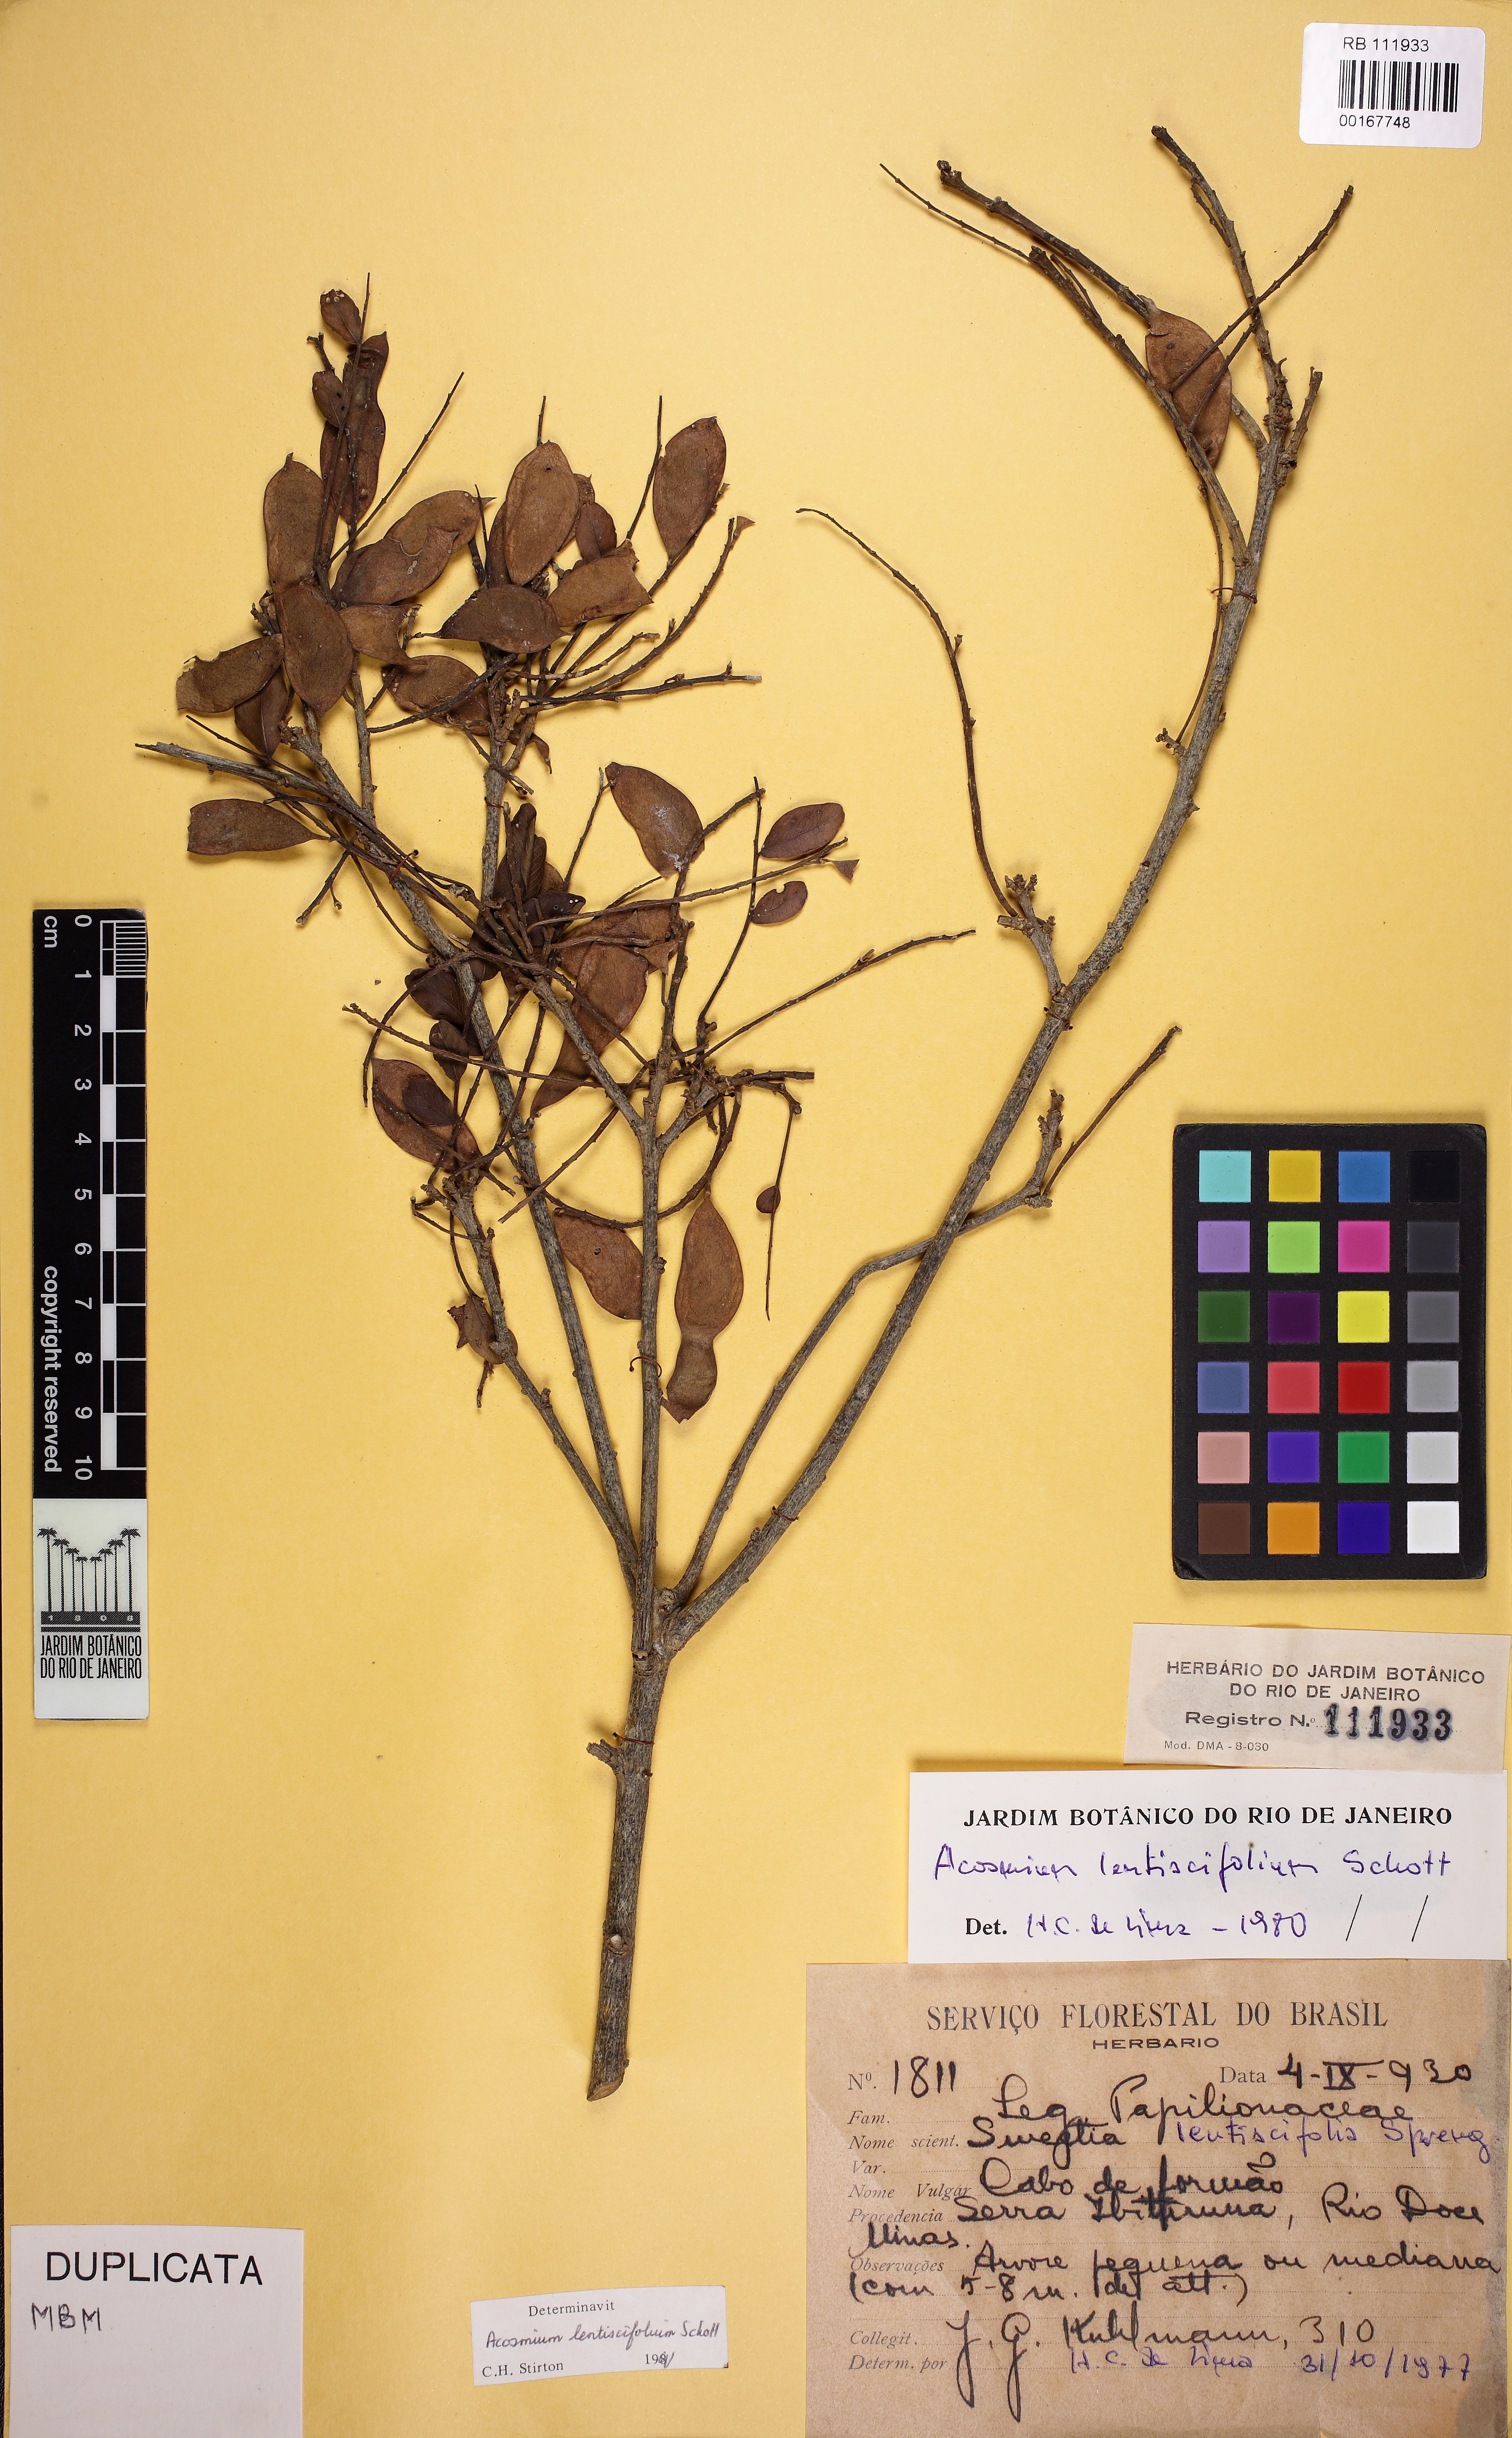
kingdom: Plantae
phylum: Tracheophyta
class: Magnoliopsida
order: Fabales
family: Fabaceae
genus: Acosmium
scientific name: Acosmium lentiscifolium
